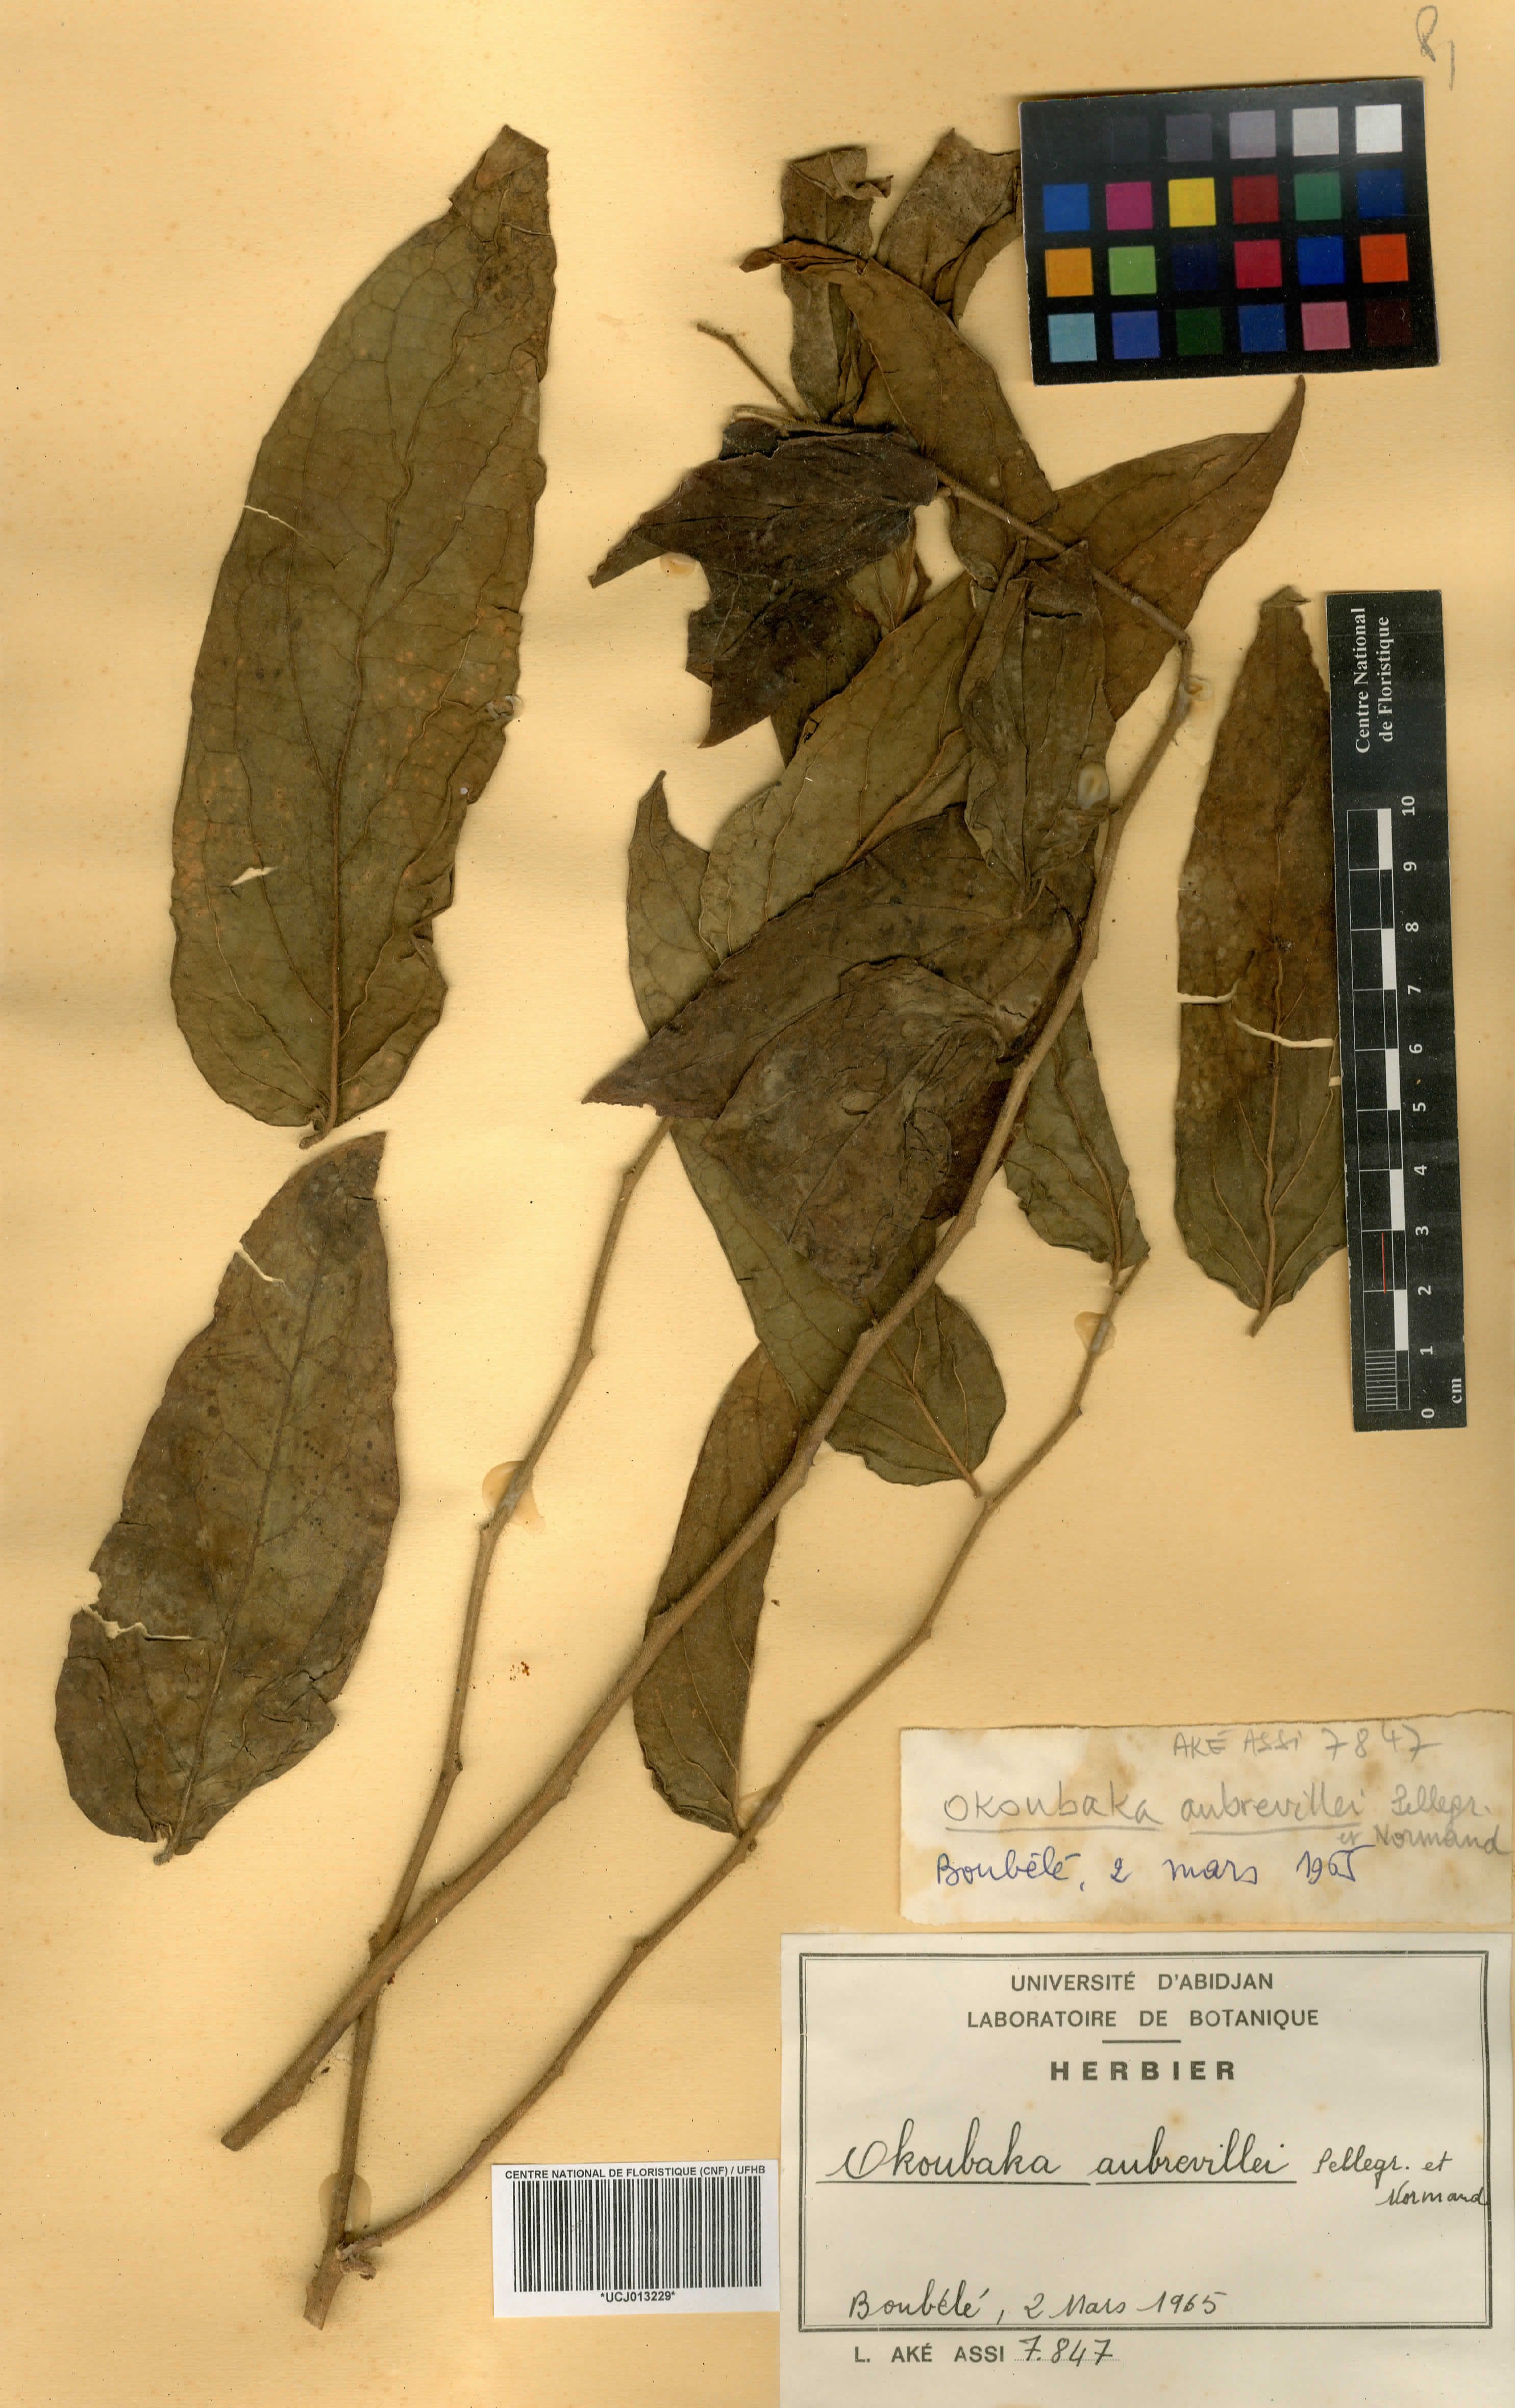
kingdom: Plantae
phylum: Tracheophyta
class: Magnoliopsida
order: Santalales
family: Cervantesiaceae
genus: Okoubaka
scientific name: Okoubaka aubrevillei
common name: Death tree
